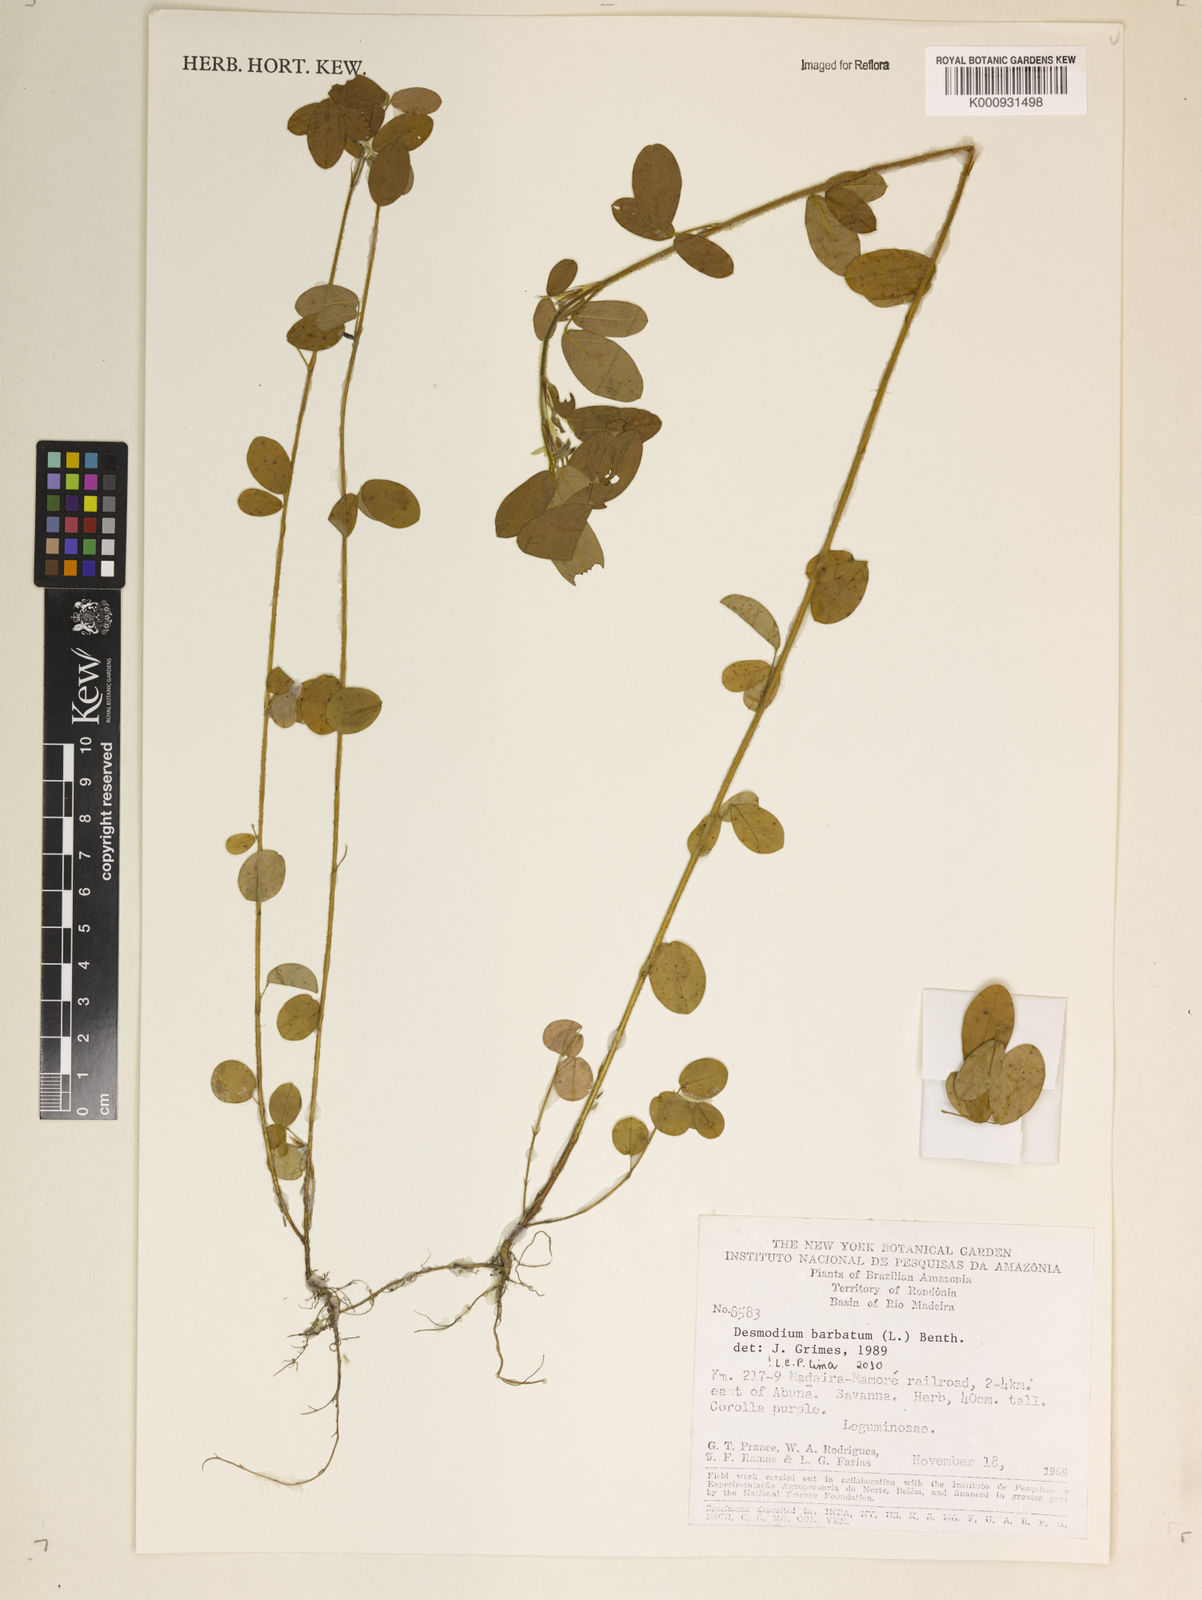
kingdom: Plantae
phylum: Tracheophyta
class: Magnoliopsida
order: Fabales
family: Fabaceae
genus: Grona
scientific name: Grona barbata
